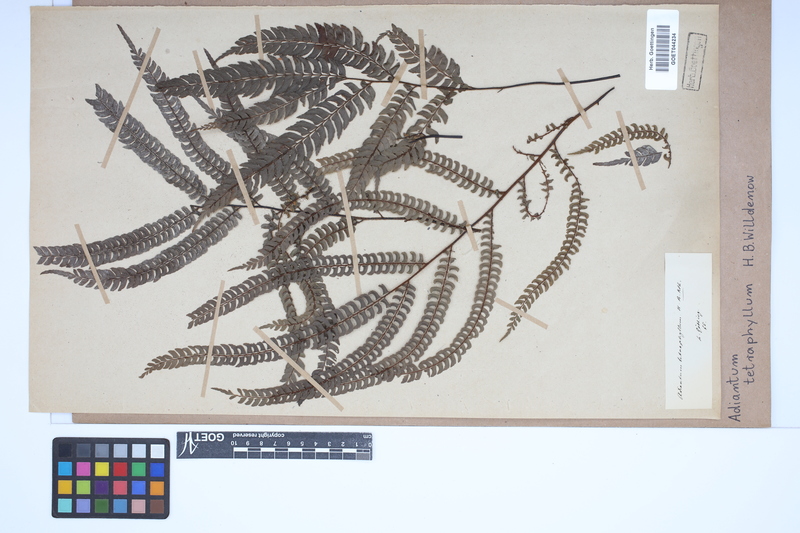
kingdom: Plantae
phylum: Tracheophyta
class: Polypodiopsida
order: Polypodiales
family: Pteridaceae
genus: Adiantum
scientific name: Adiantum tetraphyllum
